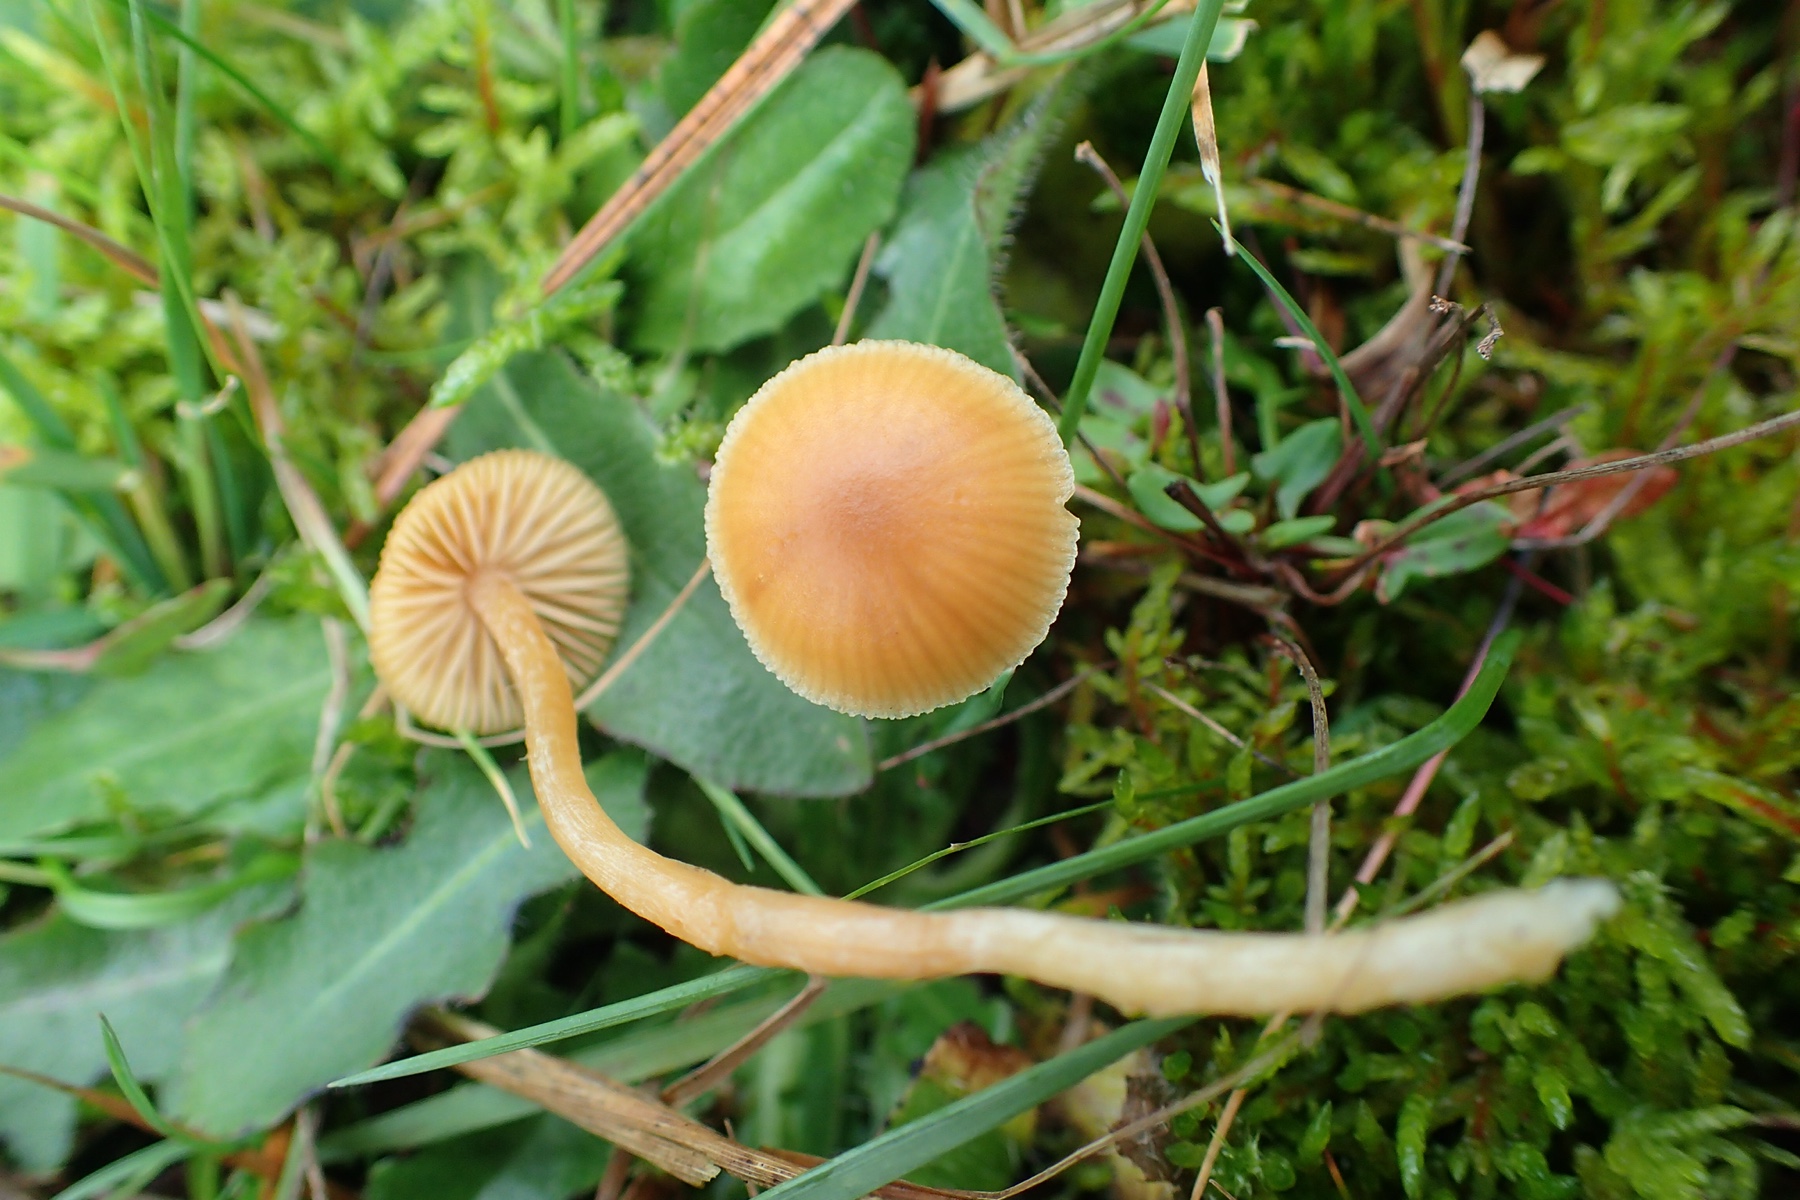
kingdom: Fungi
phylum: Basidiomycota
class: Agaricomycetes
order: Agaricales
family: Hymenogastraceae
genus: Galerina
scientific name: Galerina
